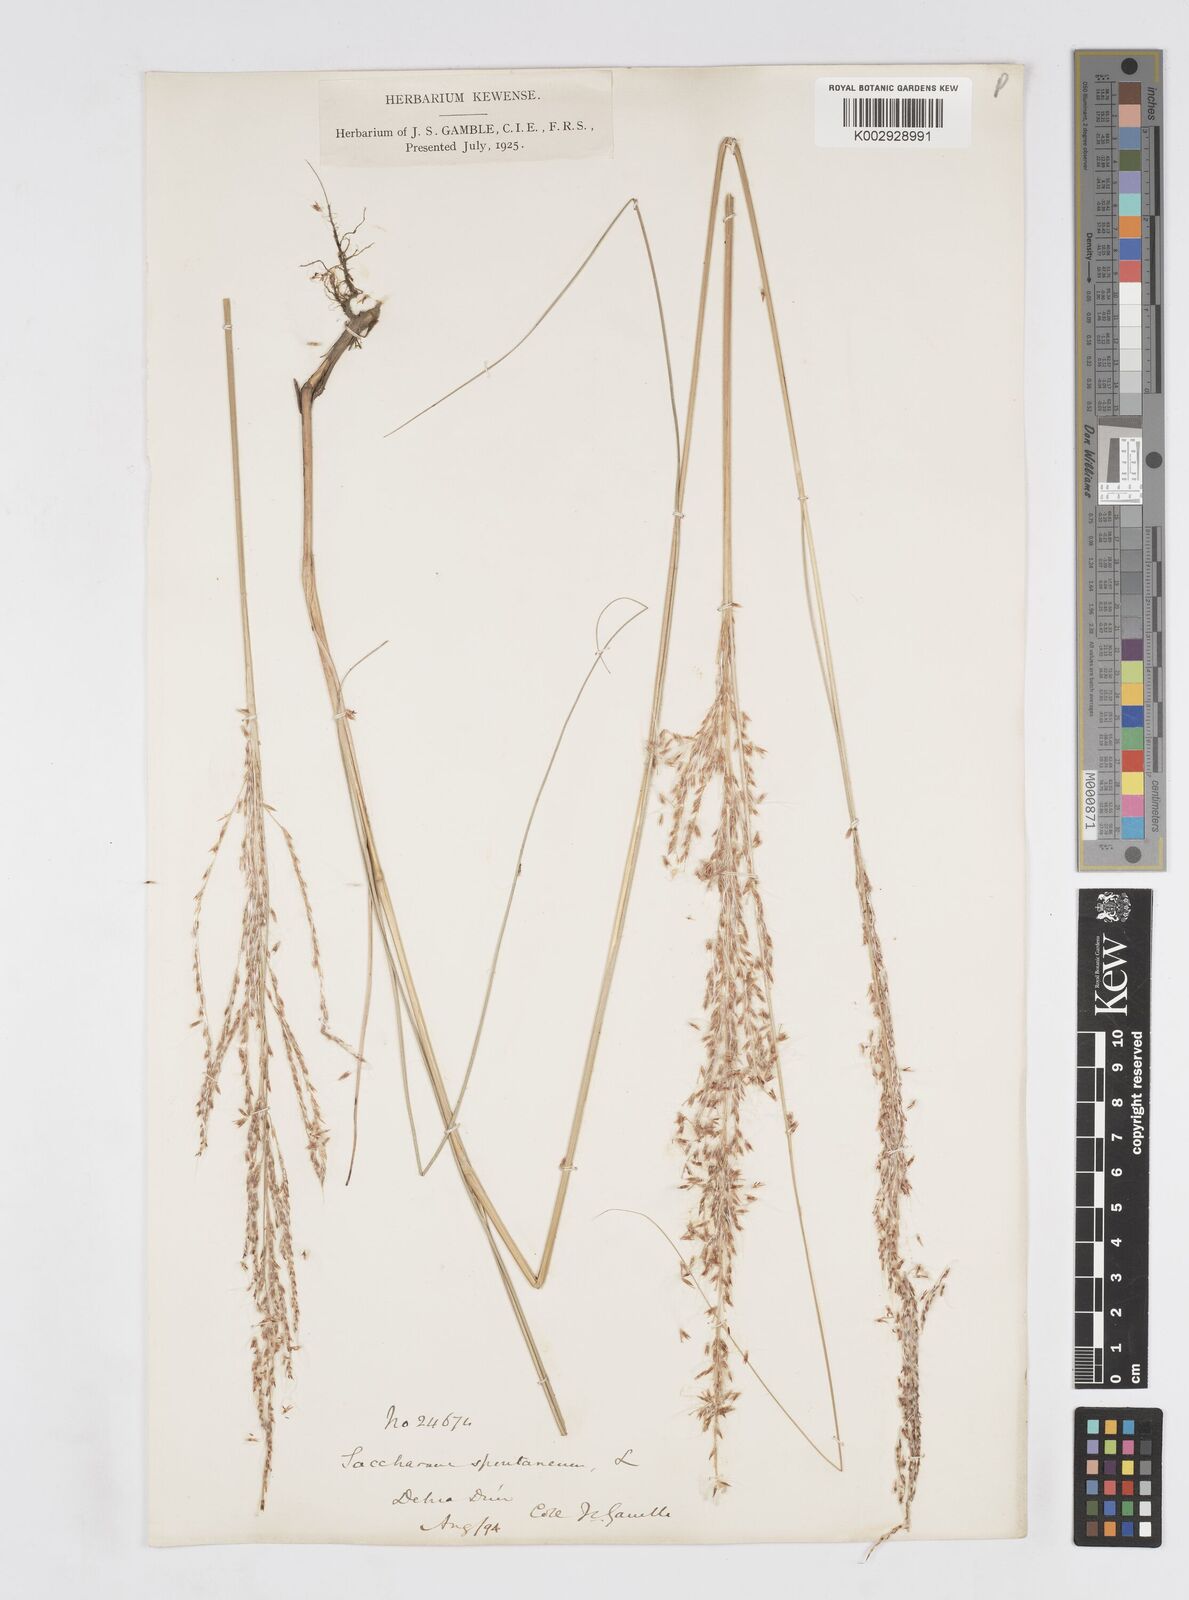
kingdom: Plantae
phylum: Tracheophyta
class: Liliopsida
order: Poales
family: Poaceae
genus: Saccharum
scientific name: Saccharum spontaneum
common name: Wild sugarcane
